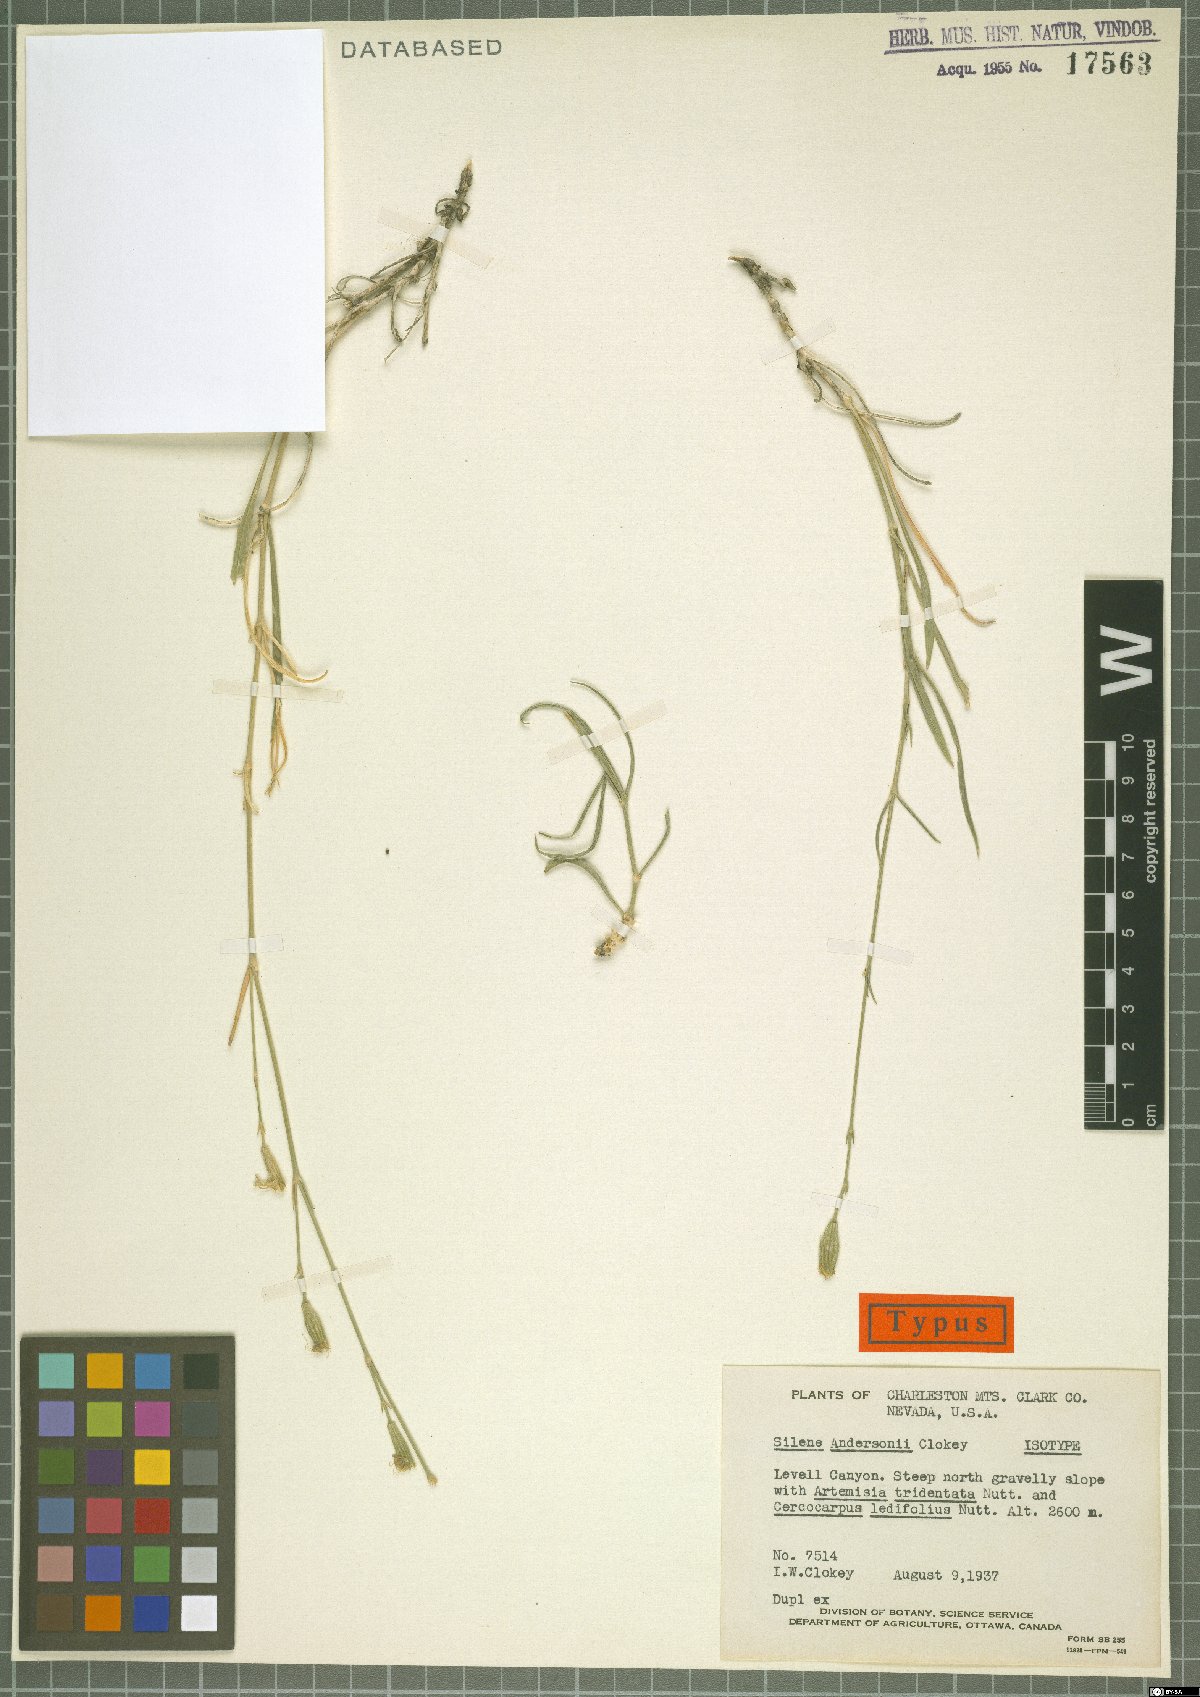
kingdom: Plantae
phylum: Tracheophyta
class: Magnoliopsida
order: Caryophyllales
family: Caryophyllaceae
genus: Silene
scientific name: Silene verecunda
